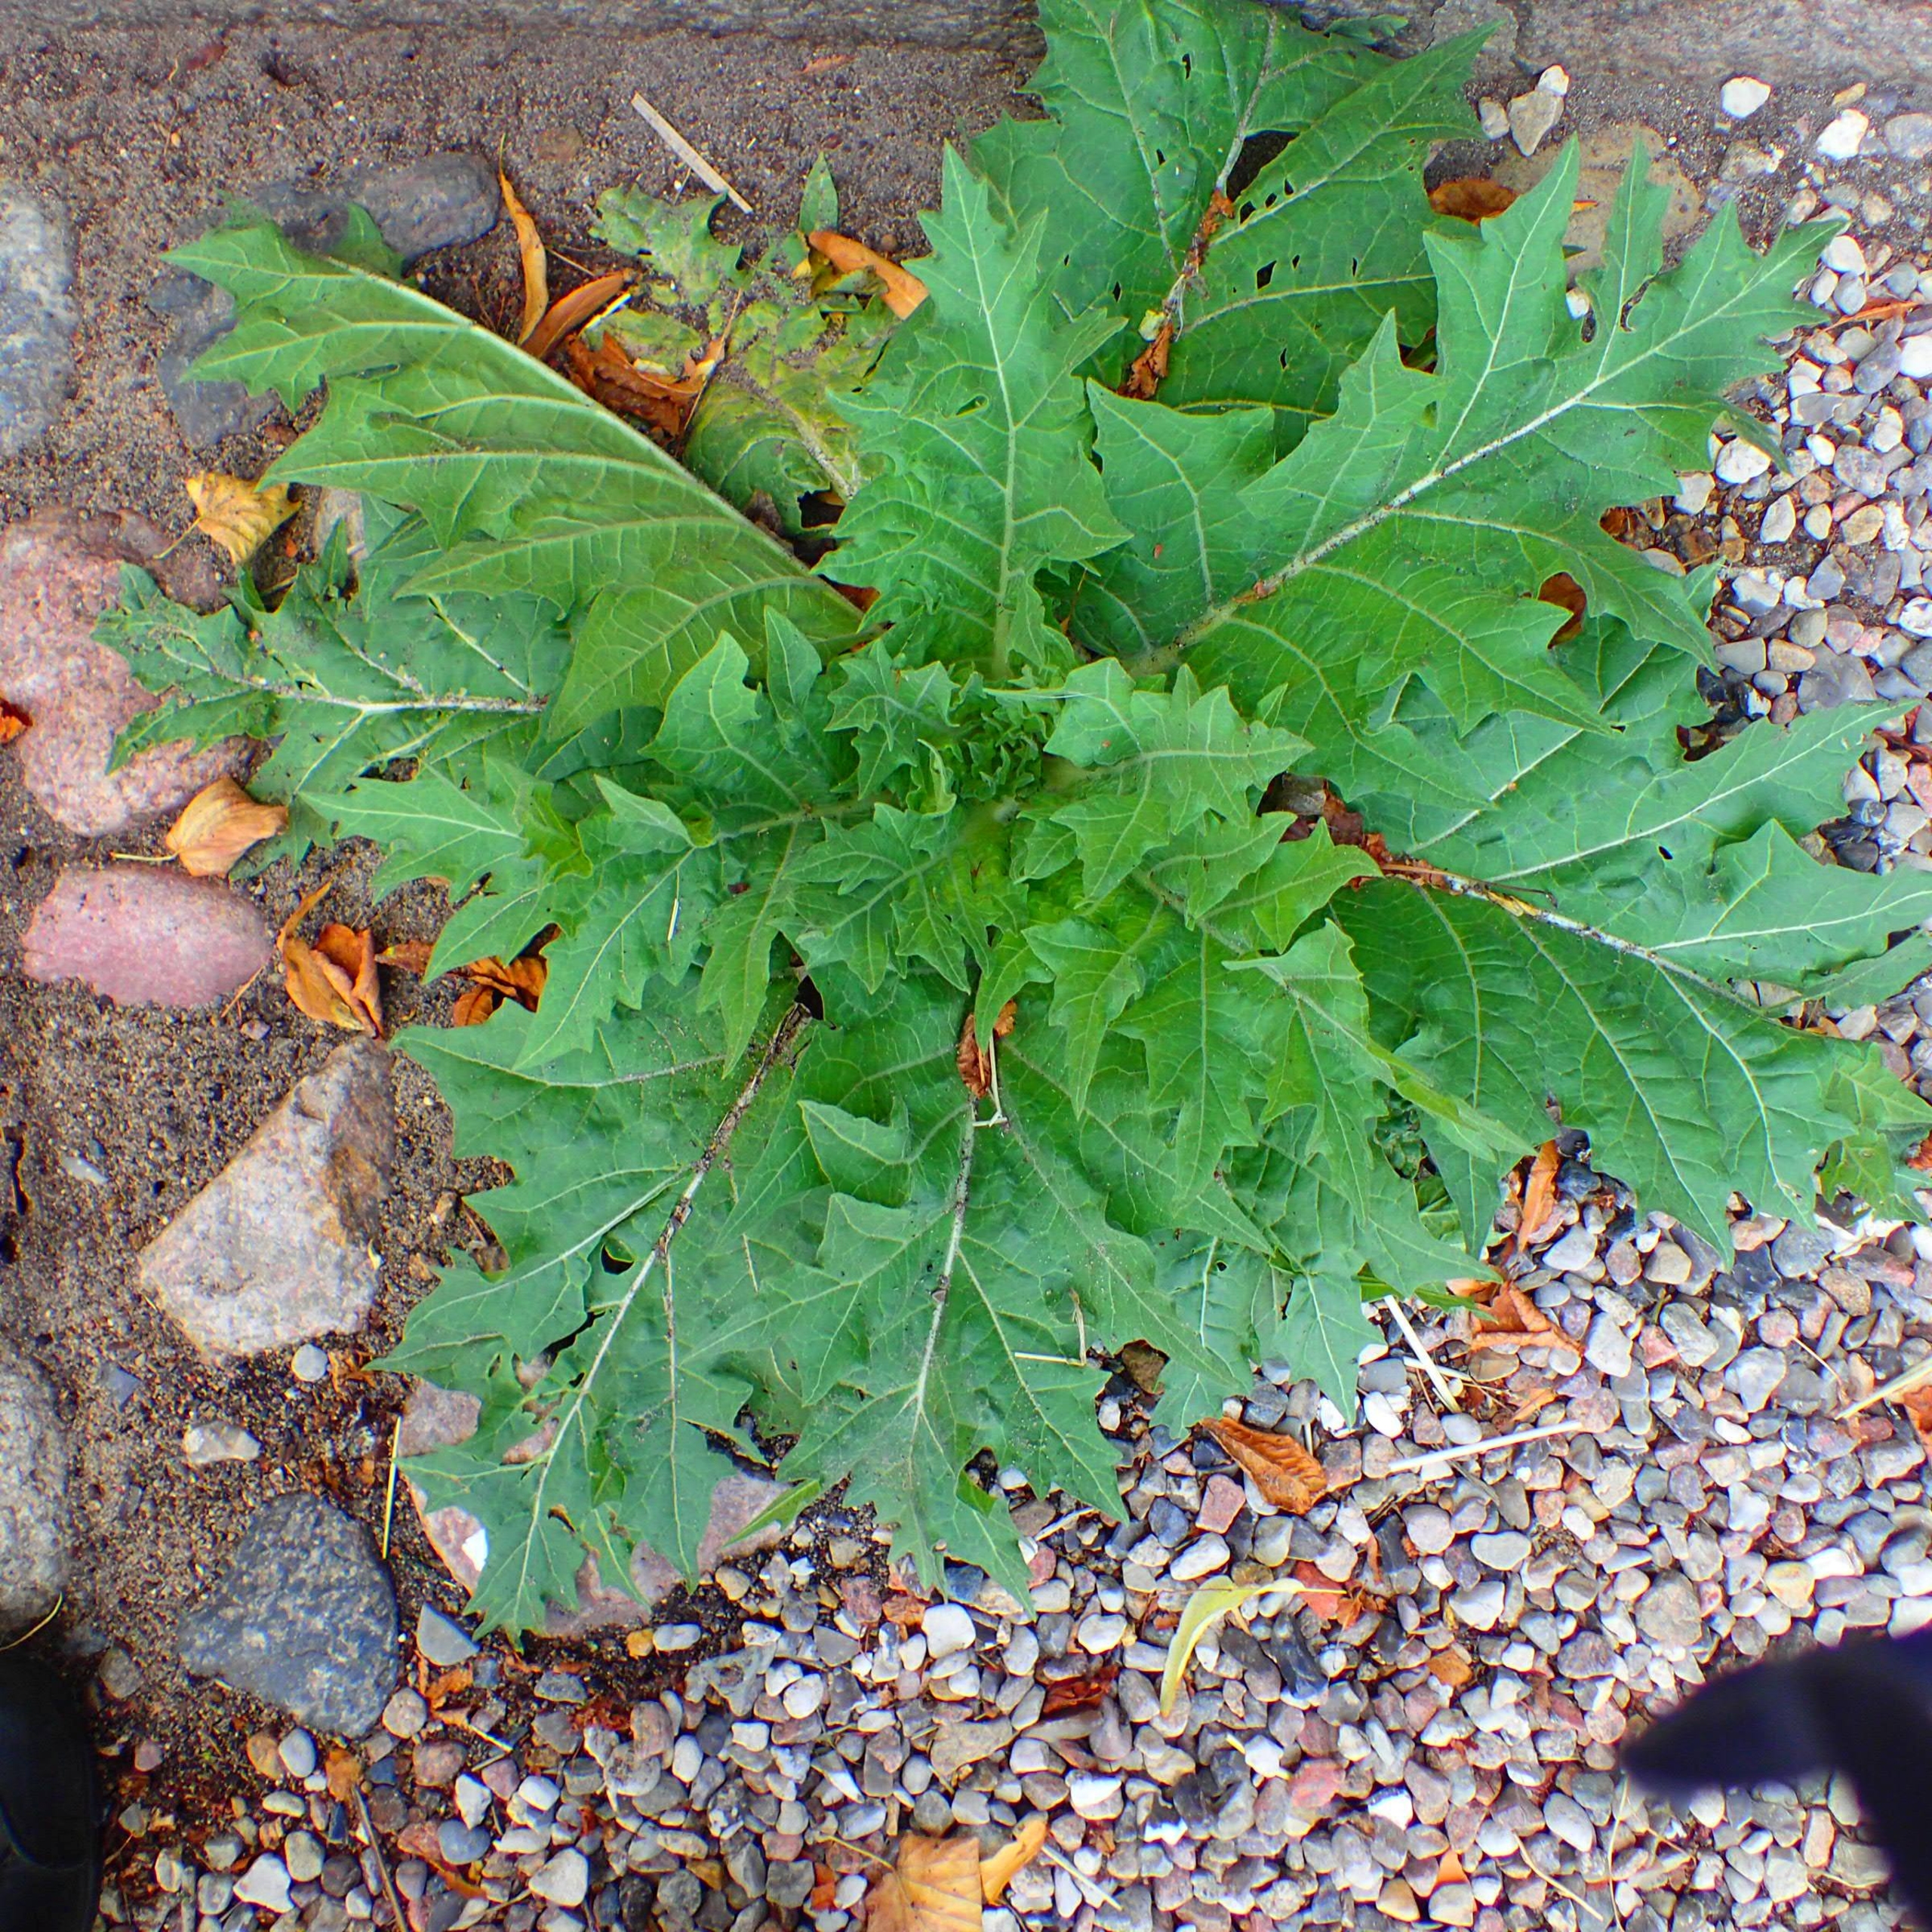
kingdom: Plantae
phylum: Tracheophyta
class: Magnoliopsida
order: Solanales
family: Solanaceae
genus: Hyoscyamus
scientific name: Hyoscyamus niger
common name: Bulmeurt
